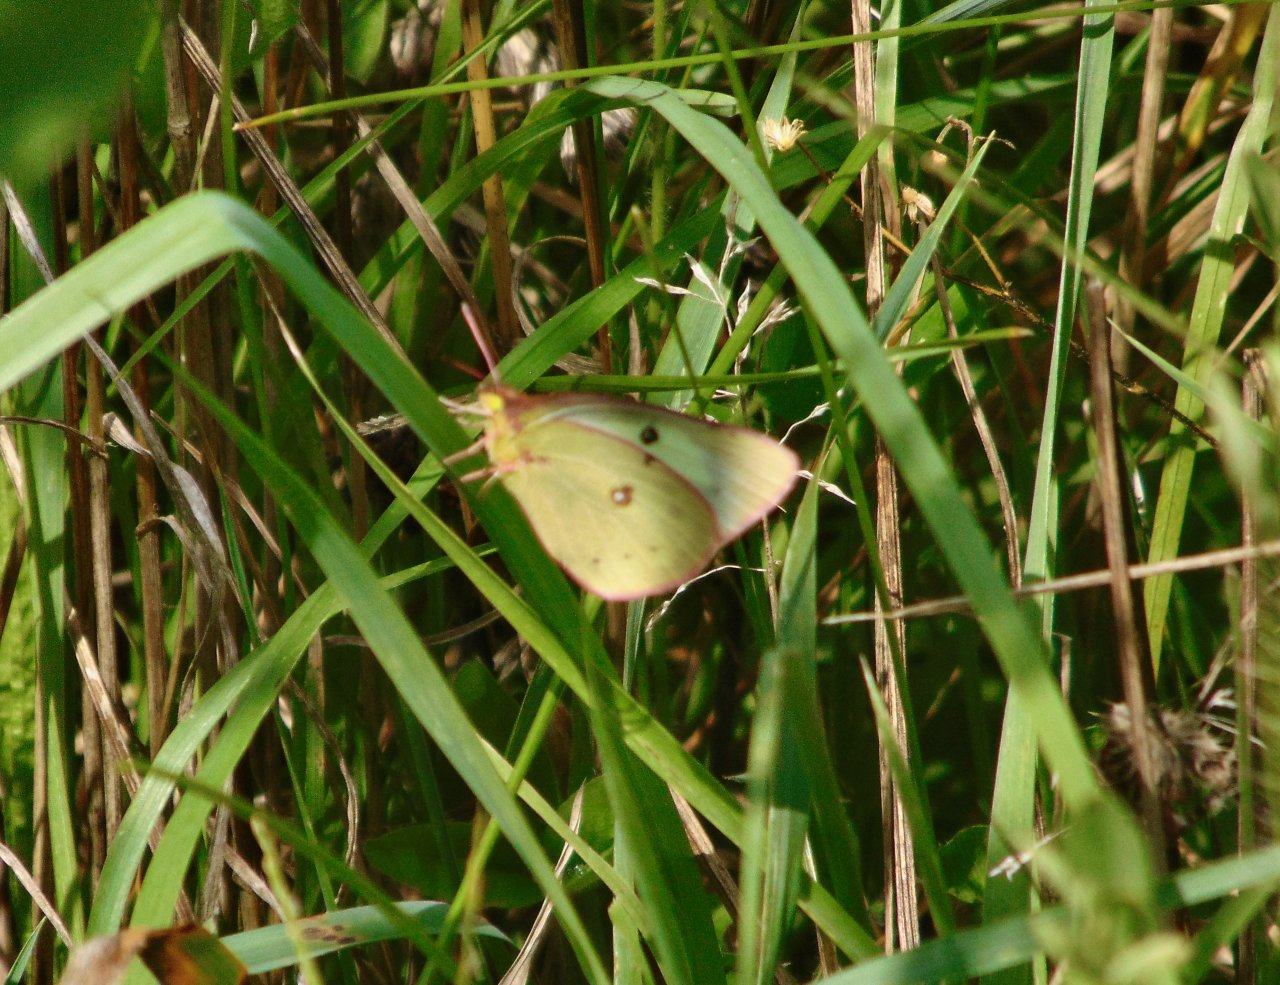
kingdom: Animalia
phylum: Arthropoda
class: Insecta
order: Lepidoptera
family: Pieridae
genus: Colias
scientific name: Colias philodice
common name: Clouded Sulphur
